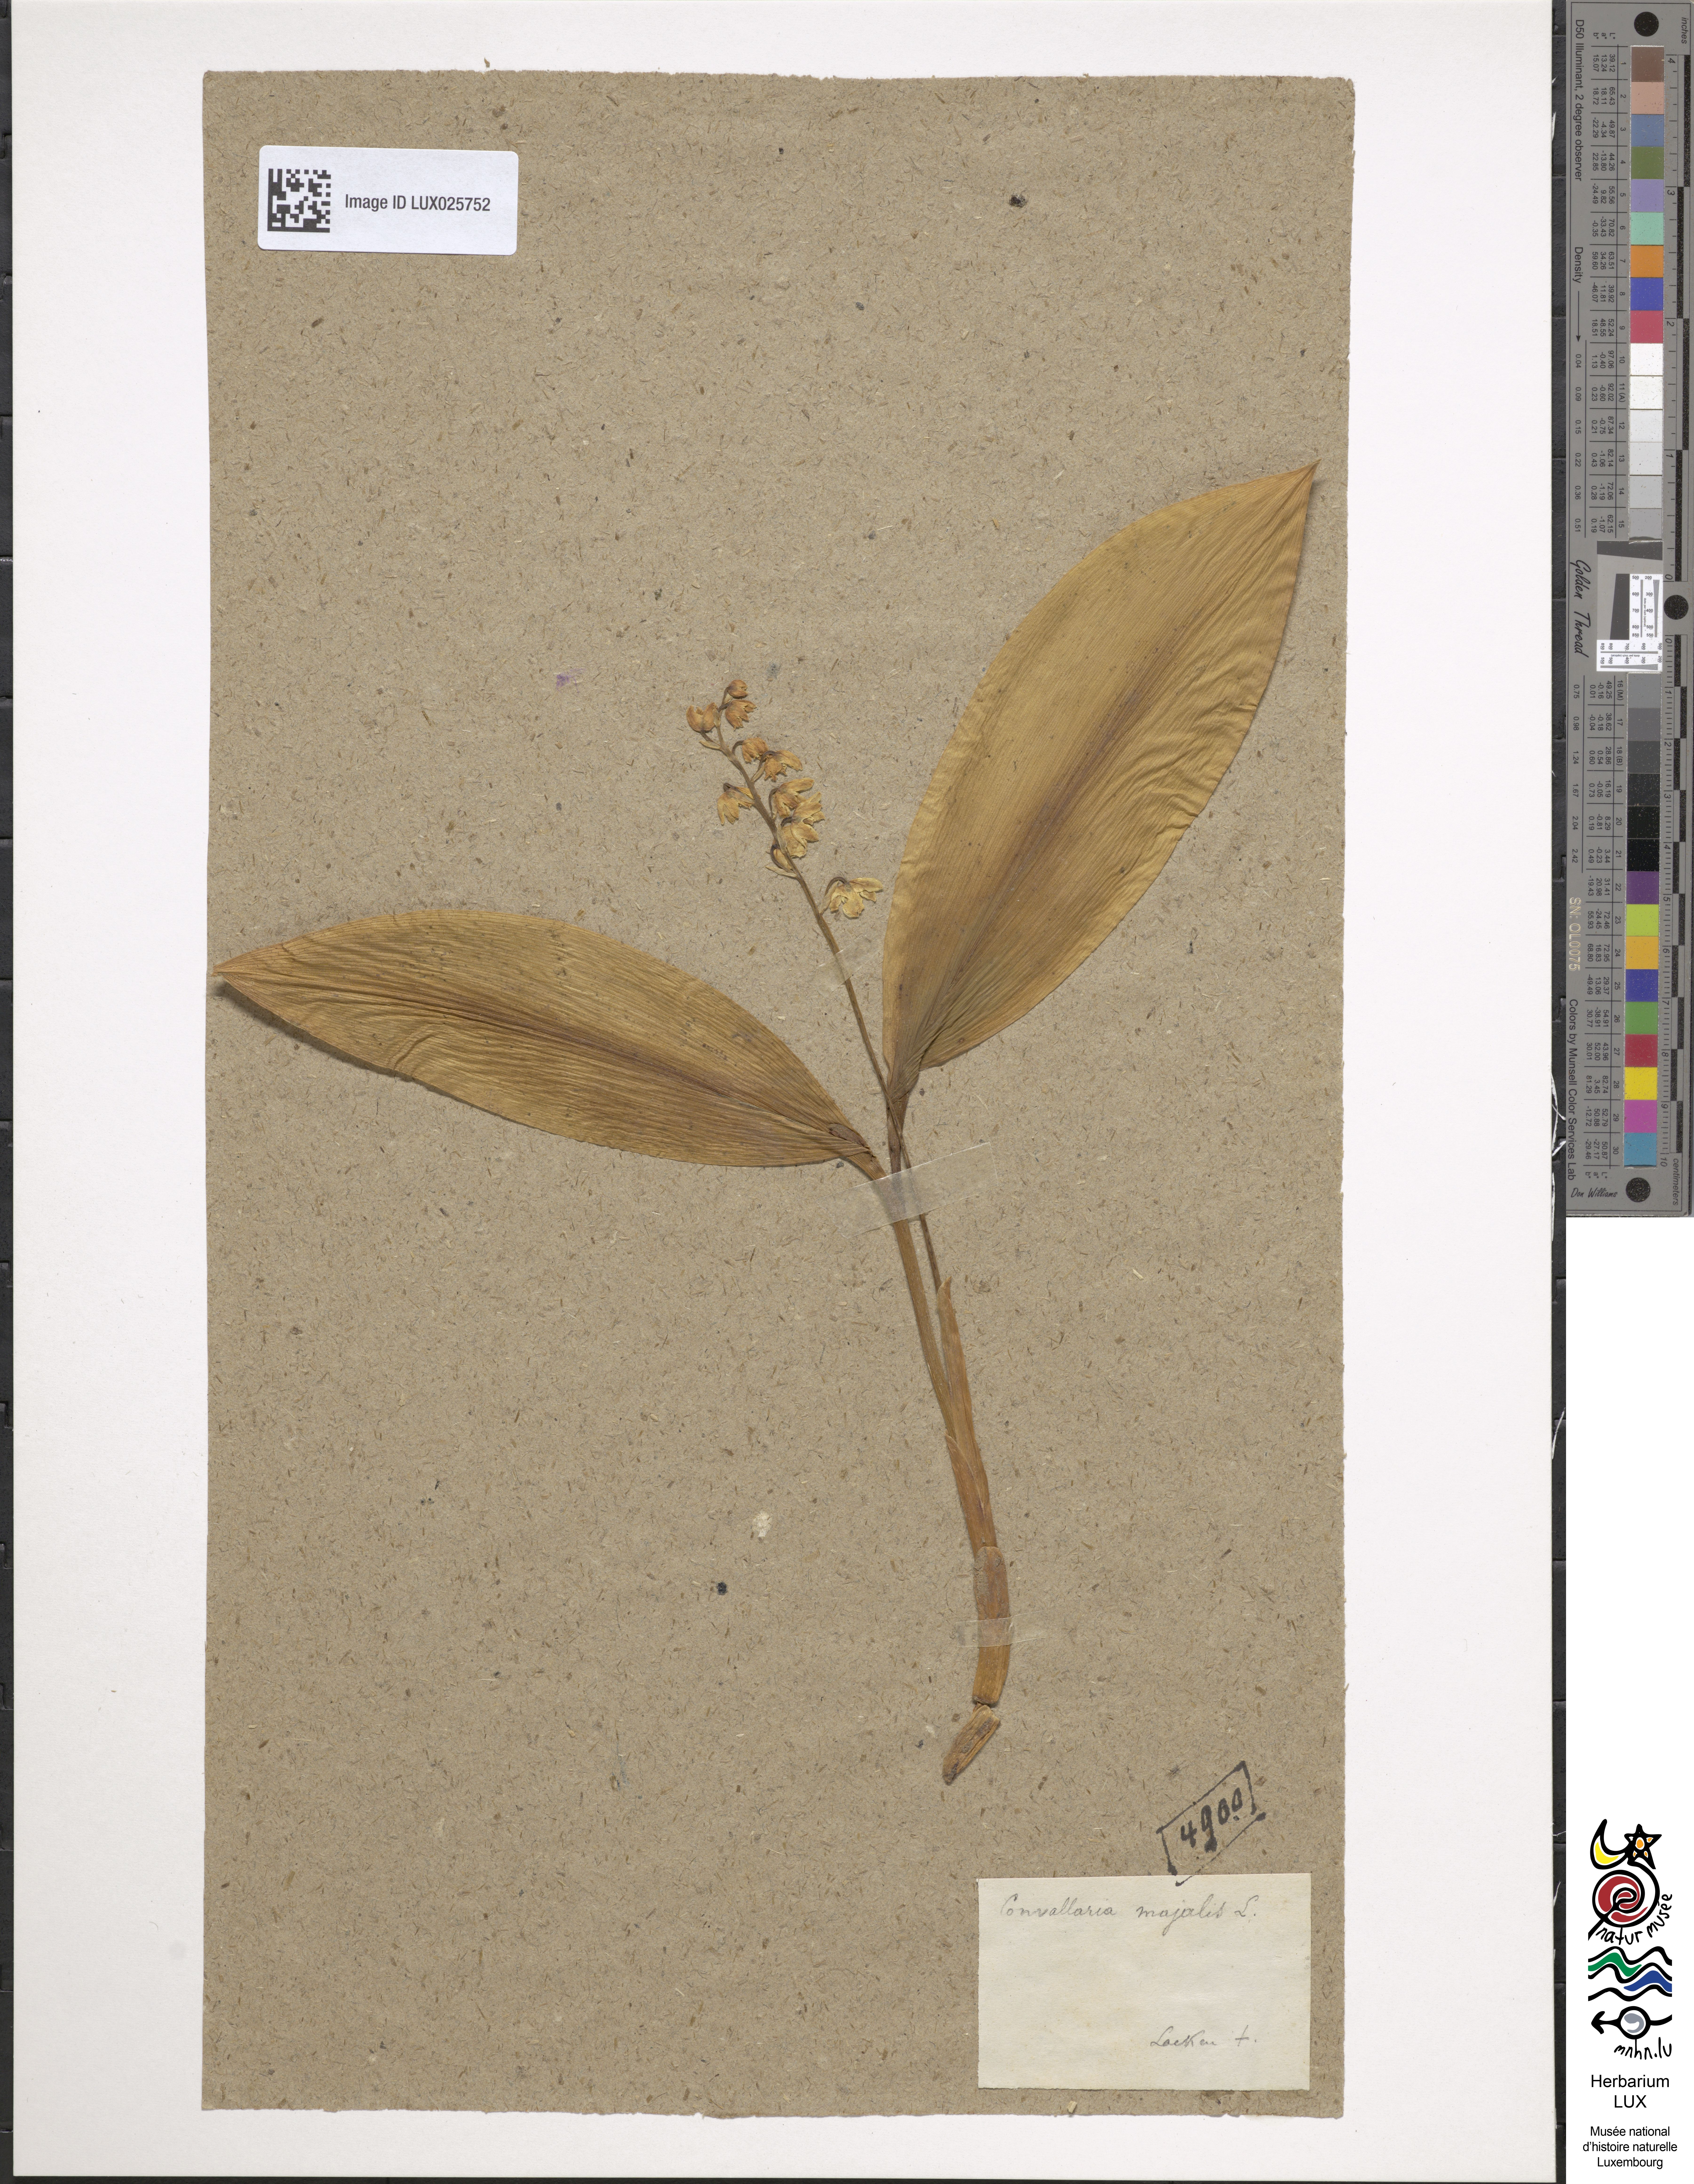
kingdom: Plantae
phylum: Tracheophyta
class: Liliopsida
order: Asparagales
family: Asparagaceae
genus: Convallaria
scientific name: Convallaria majalis
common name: Lily-of-the-valley
